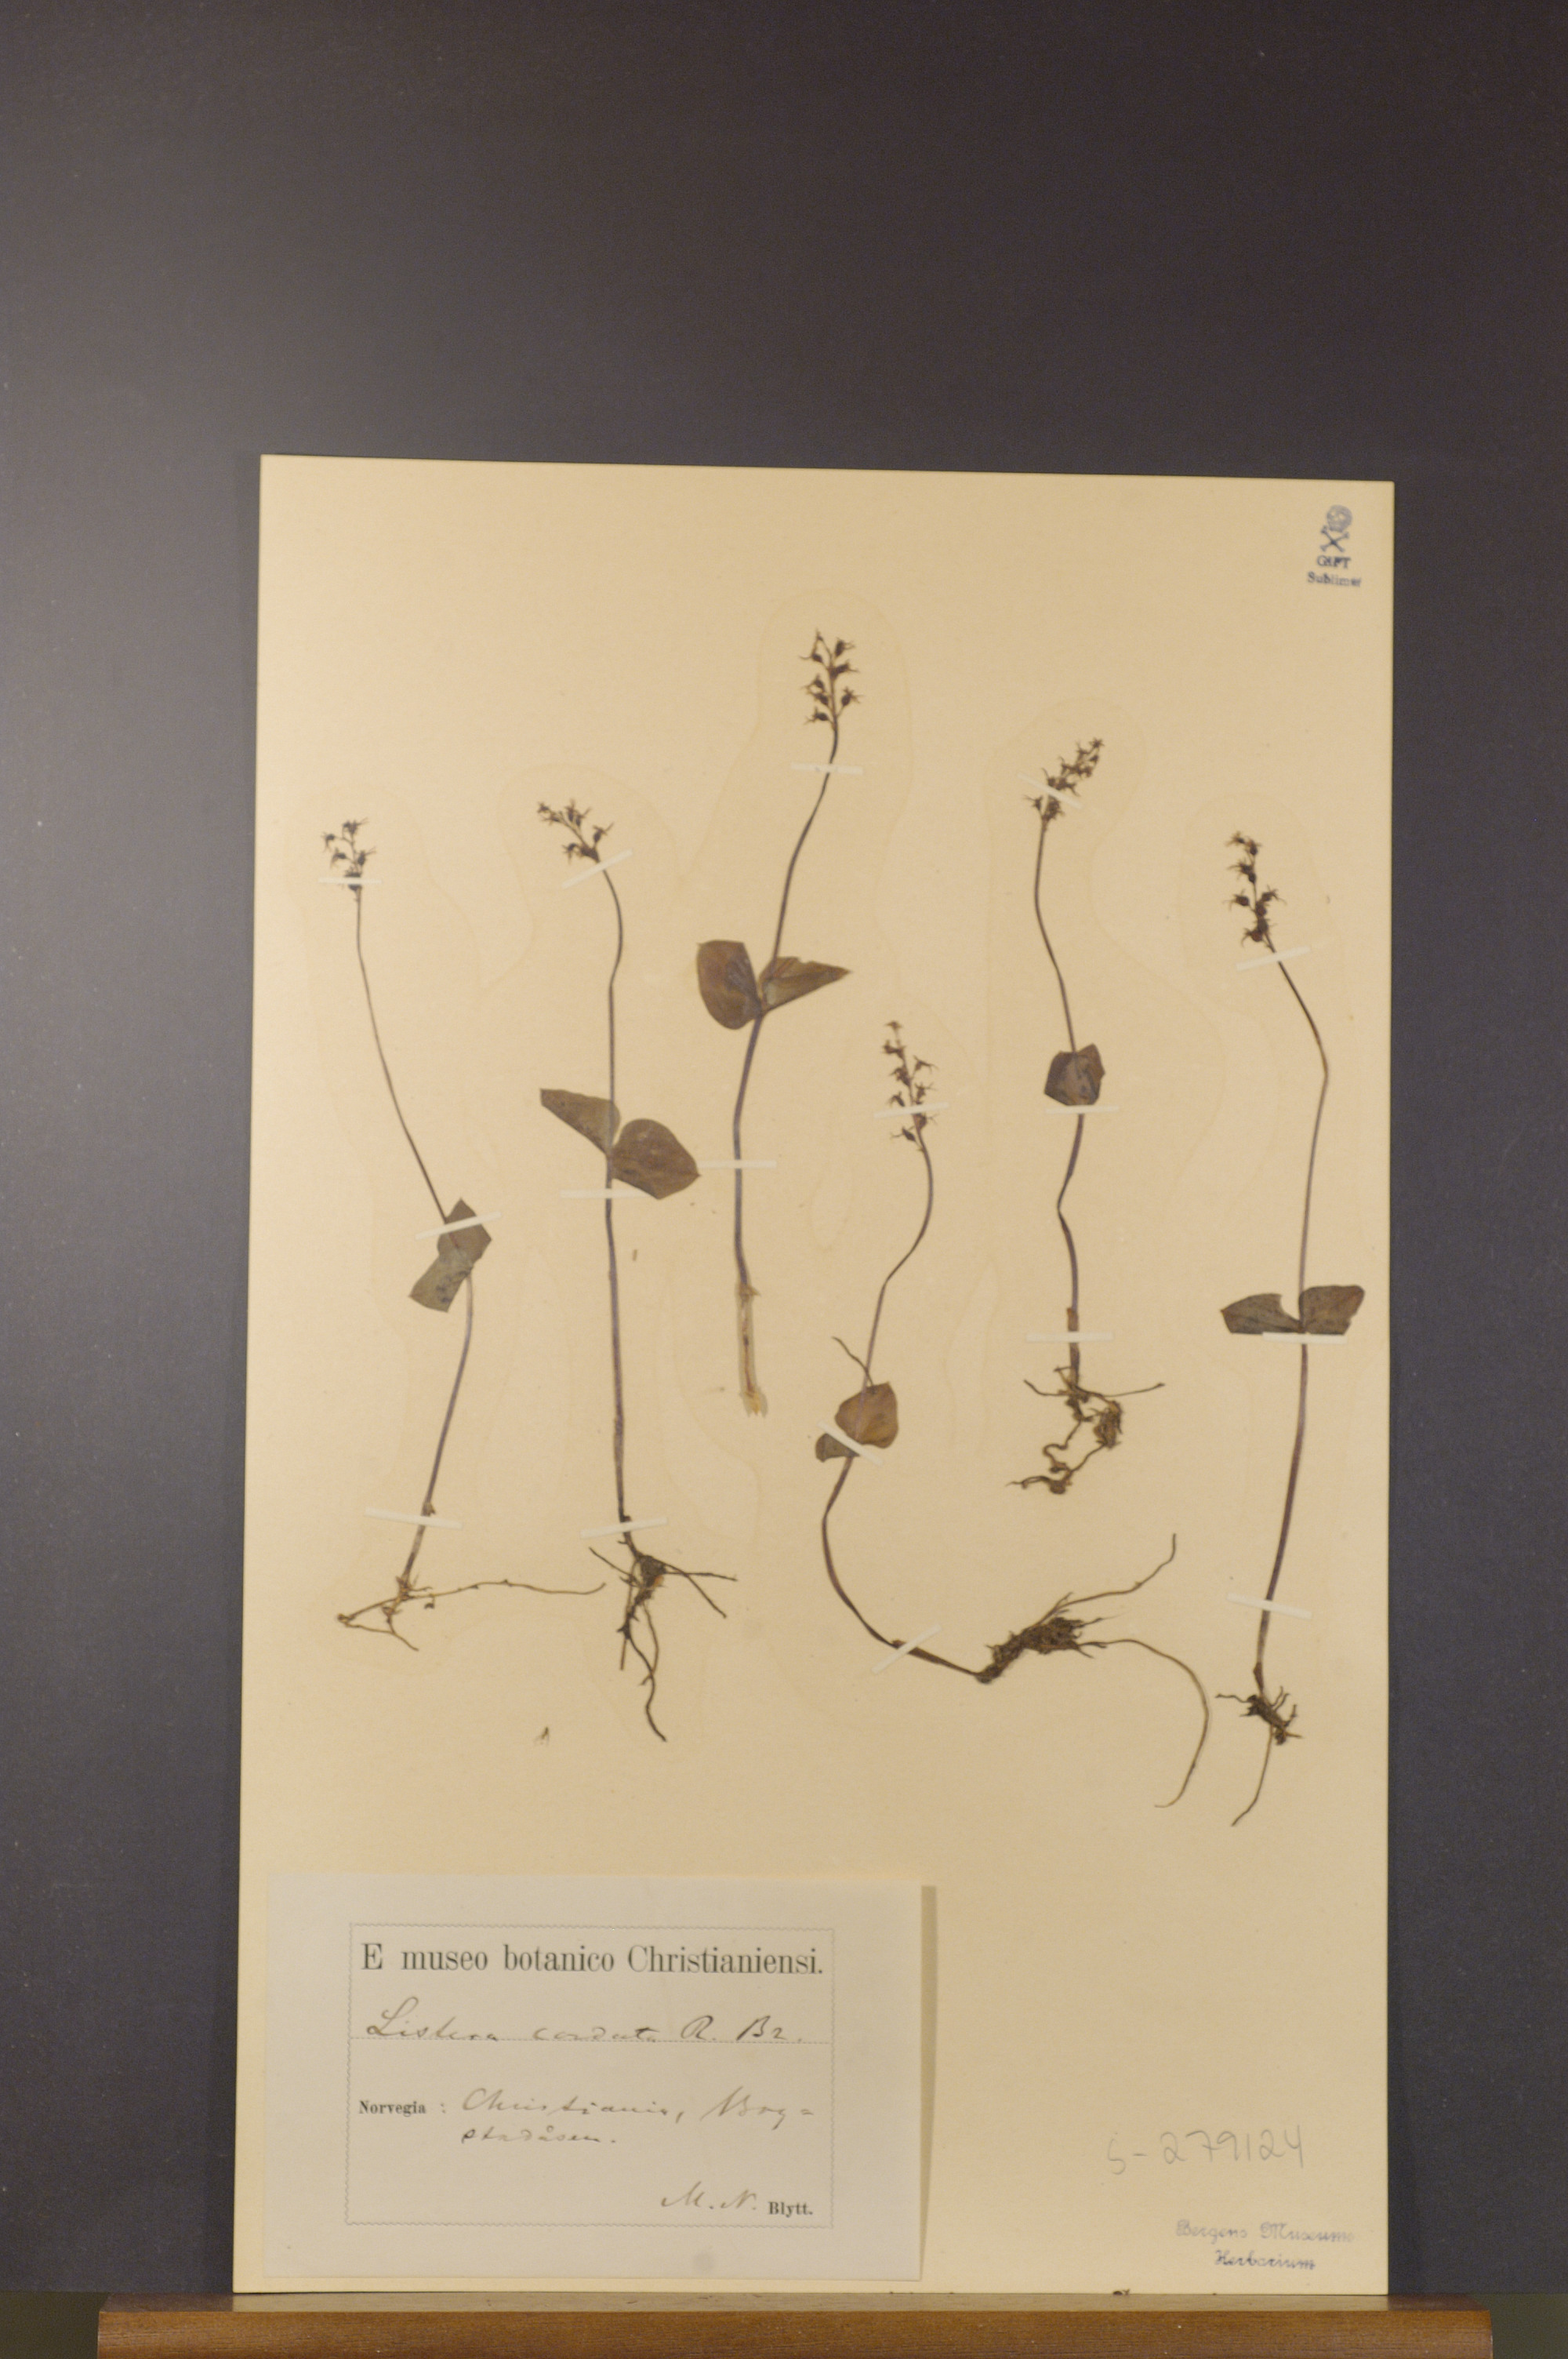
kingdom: Plantae
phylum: Tracheophyta
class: Liliopsida
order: Asparagales
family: Orchidaceae
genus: Neottia
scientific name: Neottia cordata
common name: Lesser twayblade
